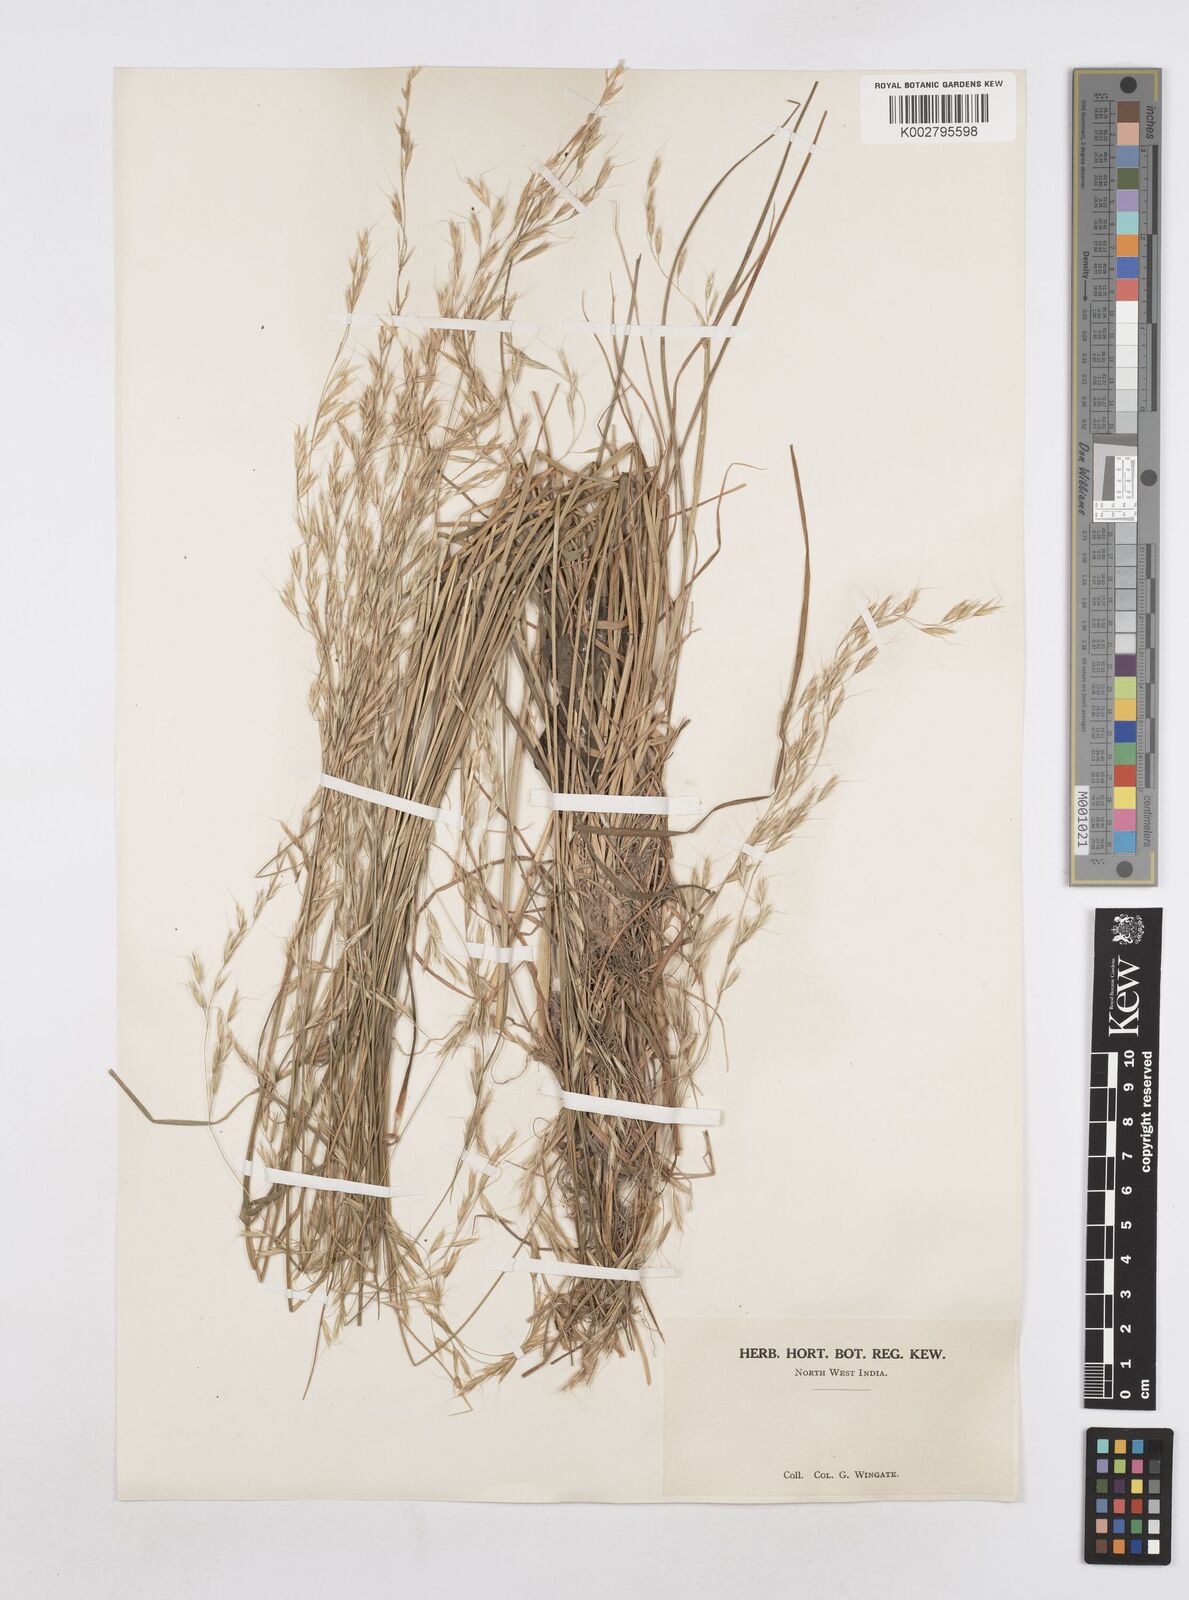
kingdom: Plantae
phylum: Tracheophyta
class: Liliopsida
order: Poales
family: Poaceae
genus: Helictotrichon
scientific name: Helictotrichon
